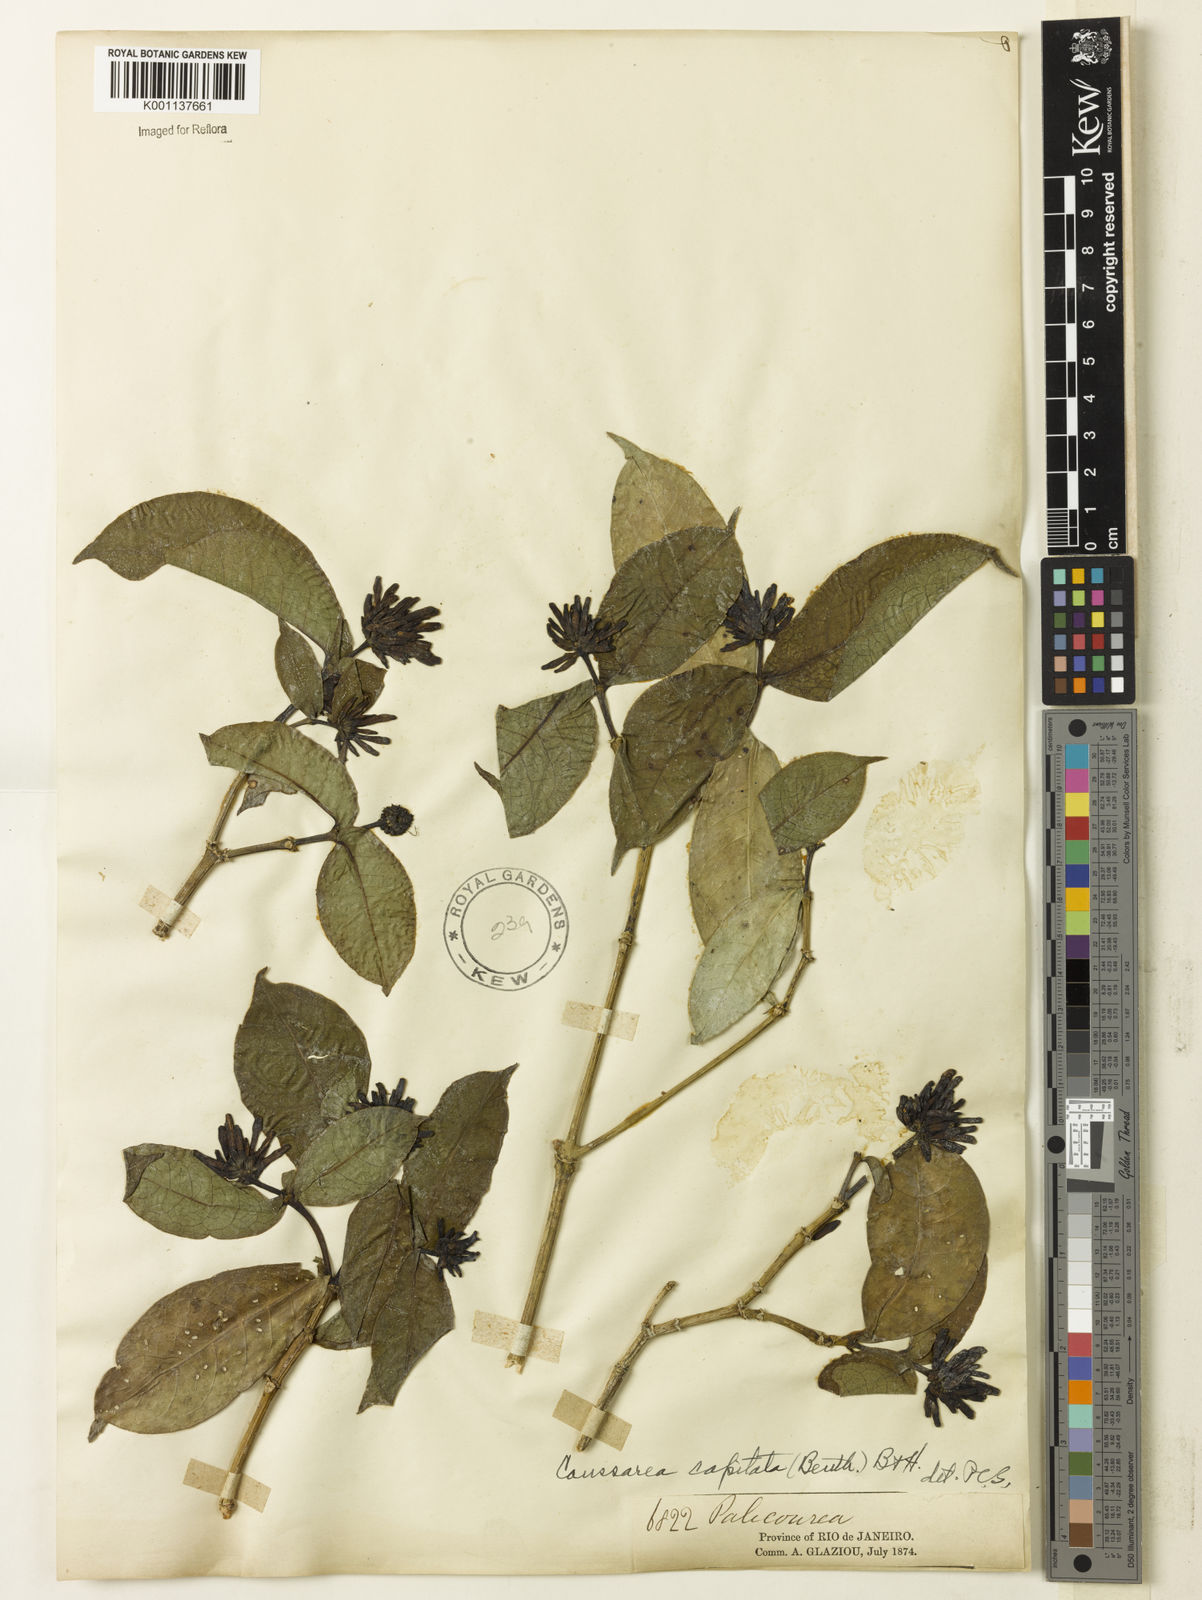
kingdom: Plantae
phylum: Tracheophyta
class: Magnoliopsida
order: Gentianales
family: Rubiaceae
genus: Coussarea
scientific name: Coussarea
